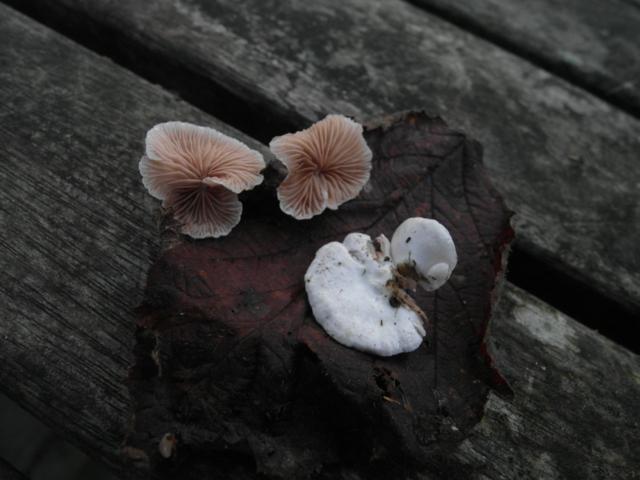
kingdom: Fungi
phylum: Basidiomycota
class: Agaricomycetes
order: Agaricales
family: Crepidotaceae
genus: Crepidotus
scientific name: Crepidotus variabilis
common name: forskelligformet muslingesvamp
